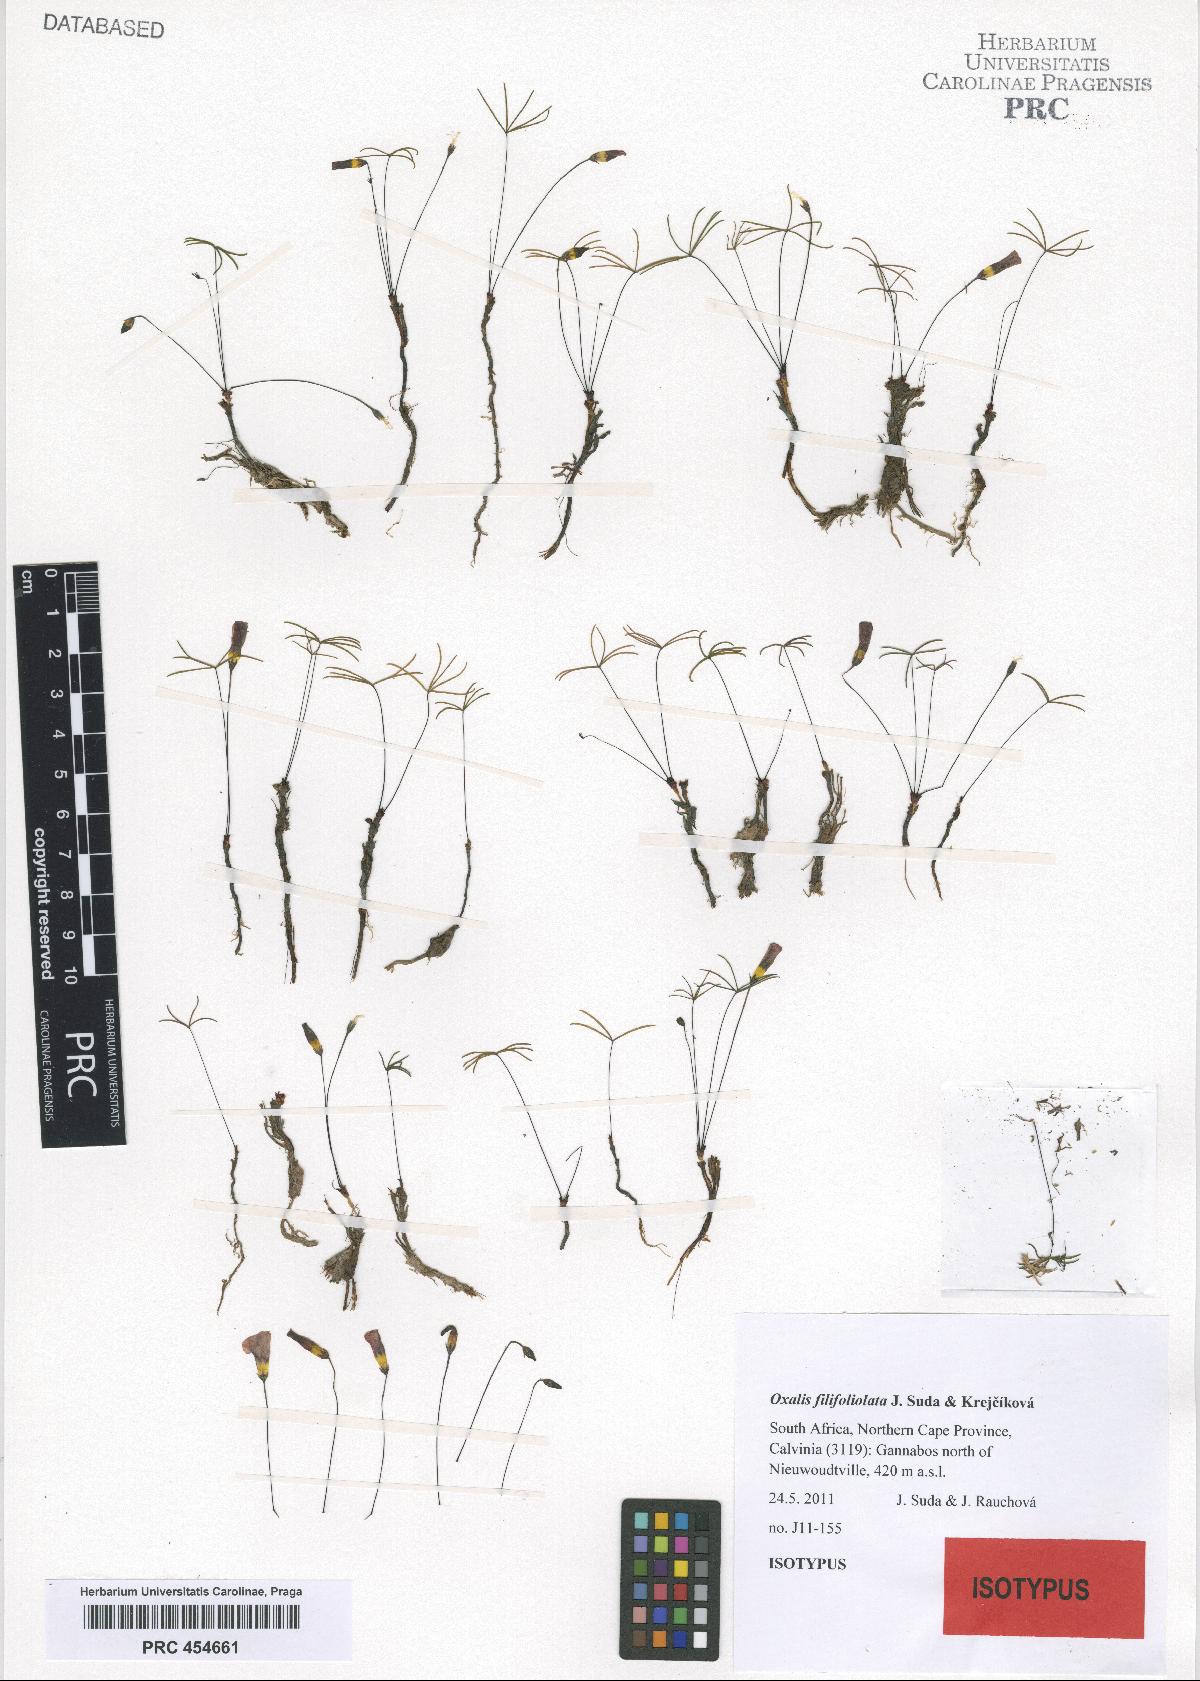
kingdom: Plantae
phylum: Tracheophyta
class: Magnoliopsida
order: Oxalidales
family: Oxalidaceae
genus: Oxalis
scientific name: Oxalis filifoliolata
